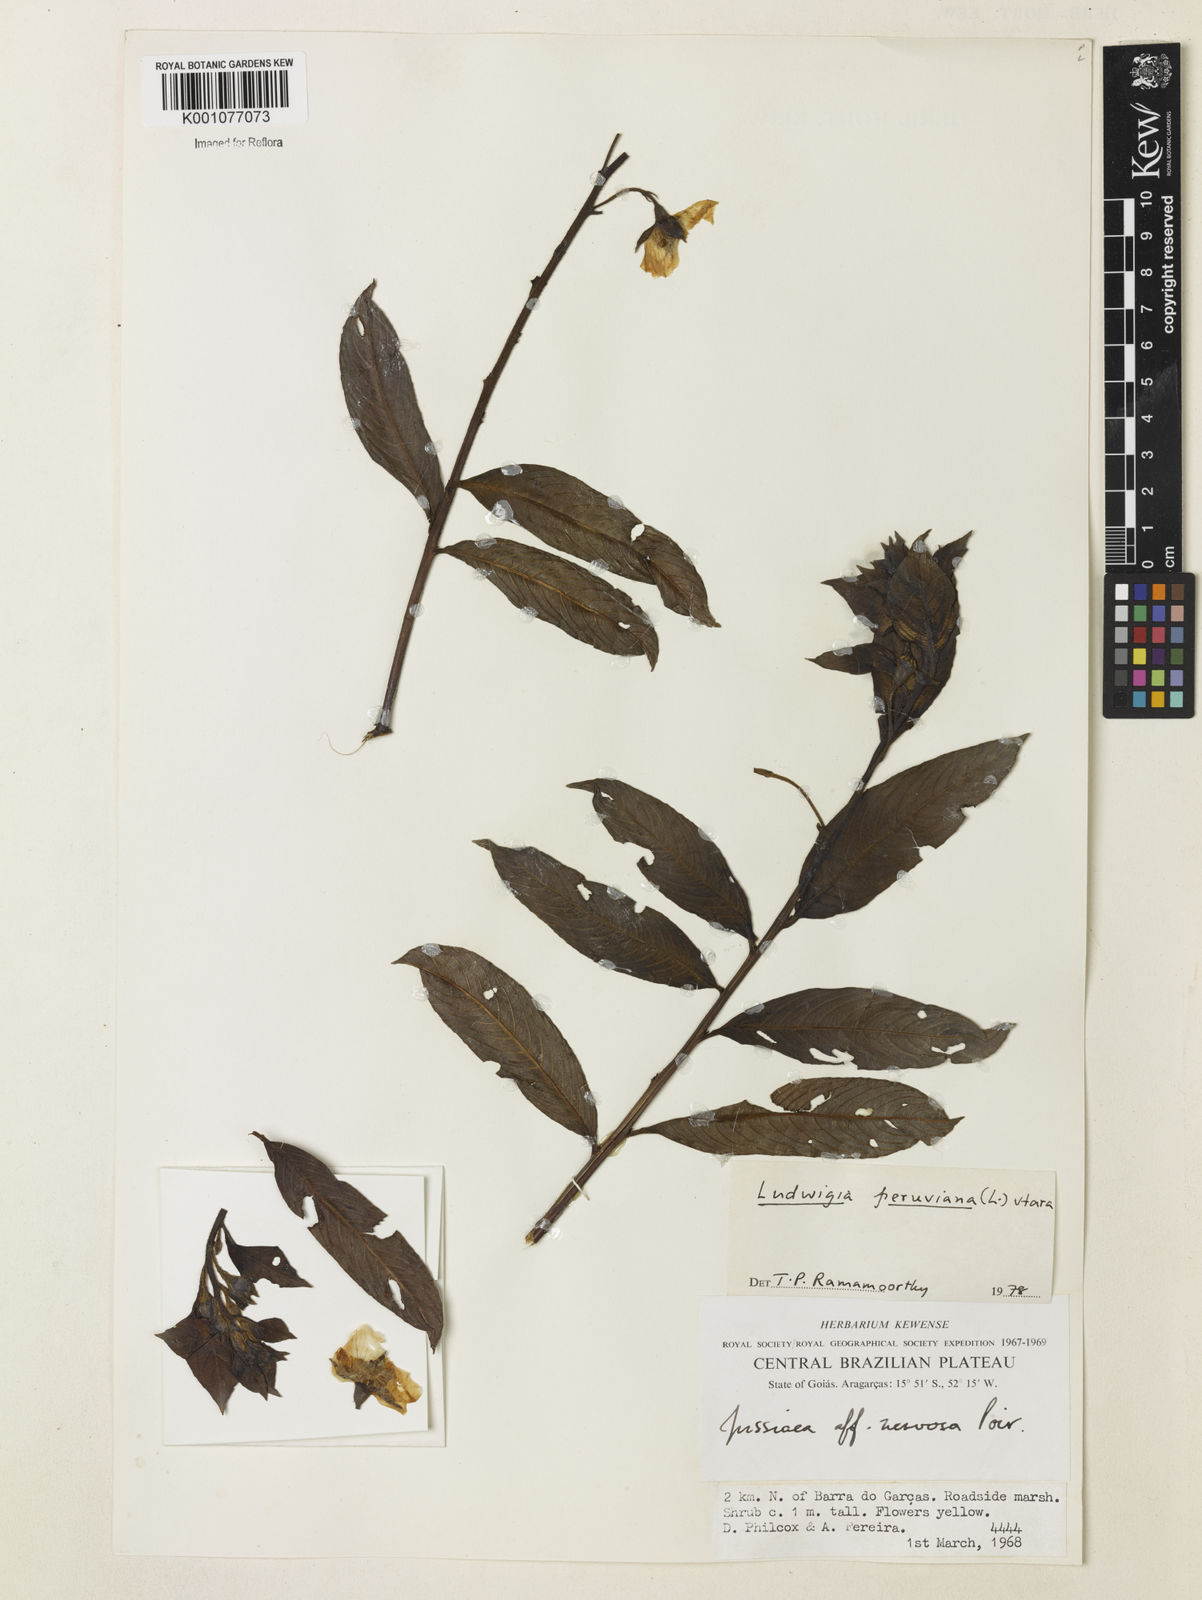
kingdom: Plantae
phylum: Tracheophyta
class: Magnoliopsida
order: Myrtales
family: Onagraceae
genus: Ludwigia
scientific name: Ludwigia peruviana
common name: Peruvian primrose-willow
